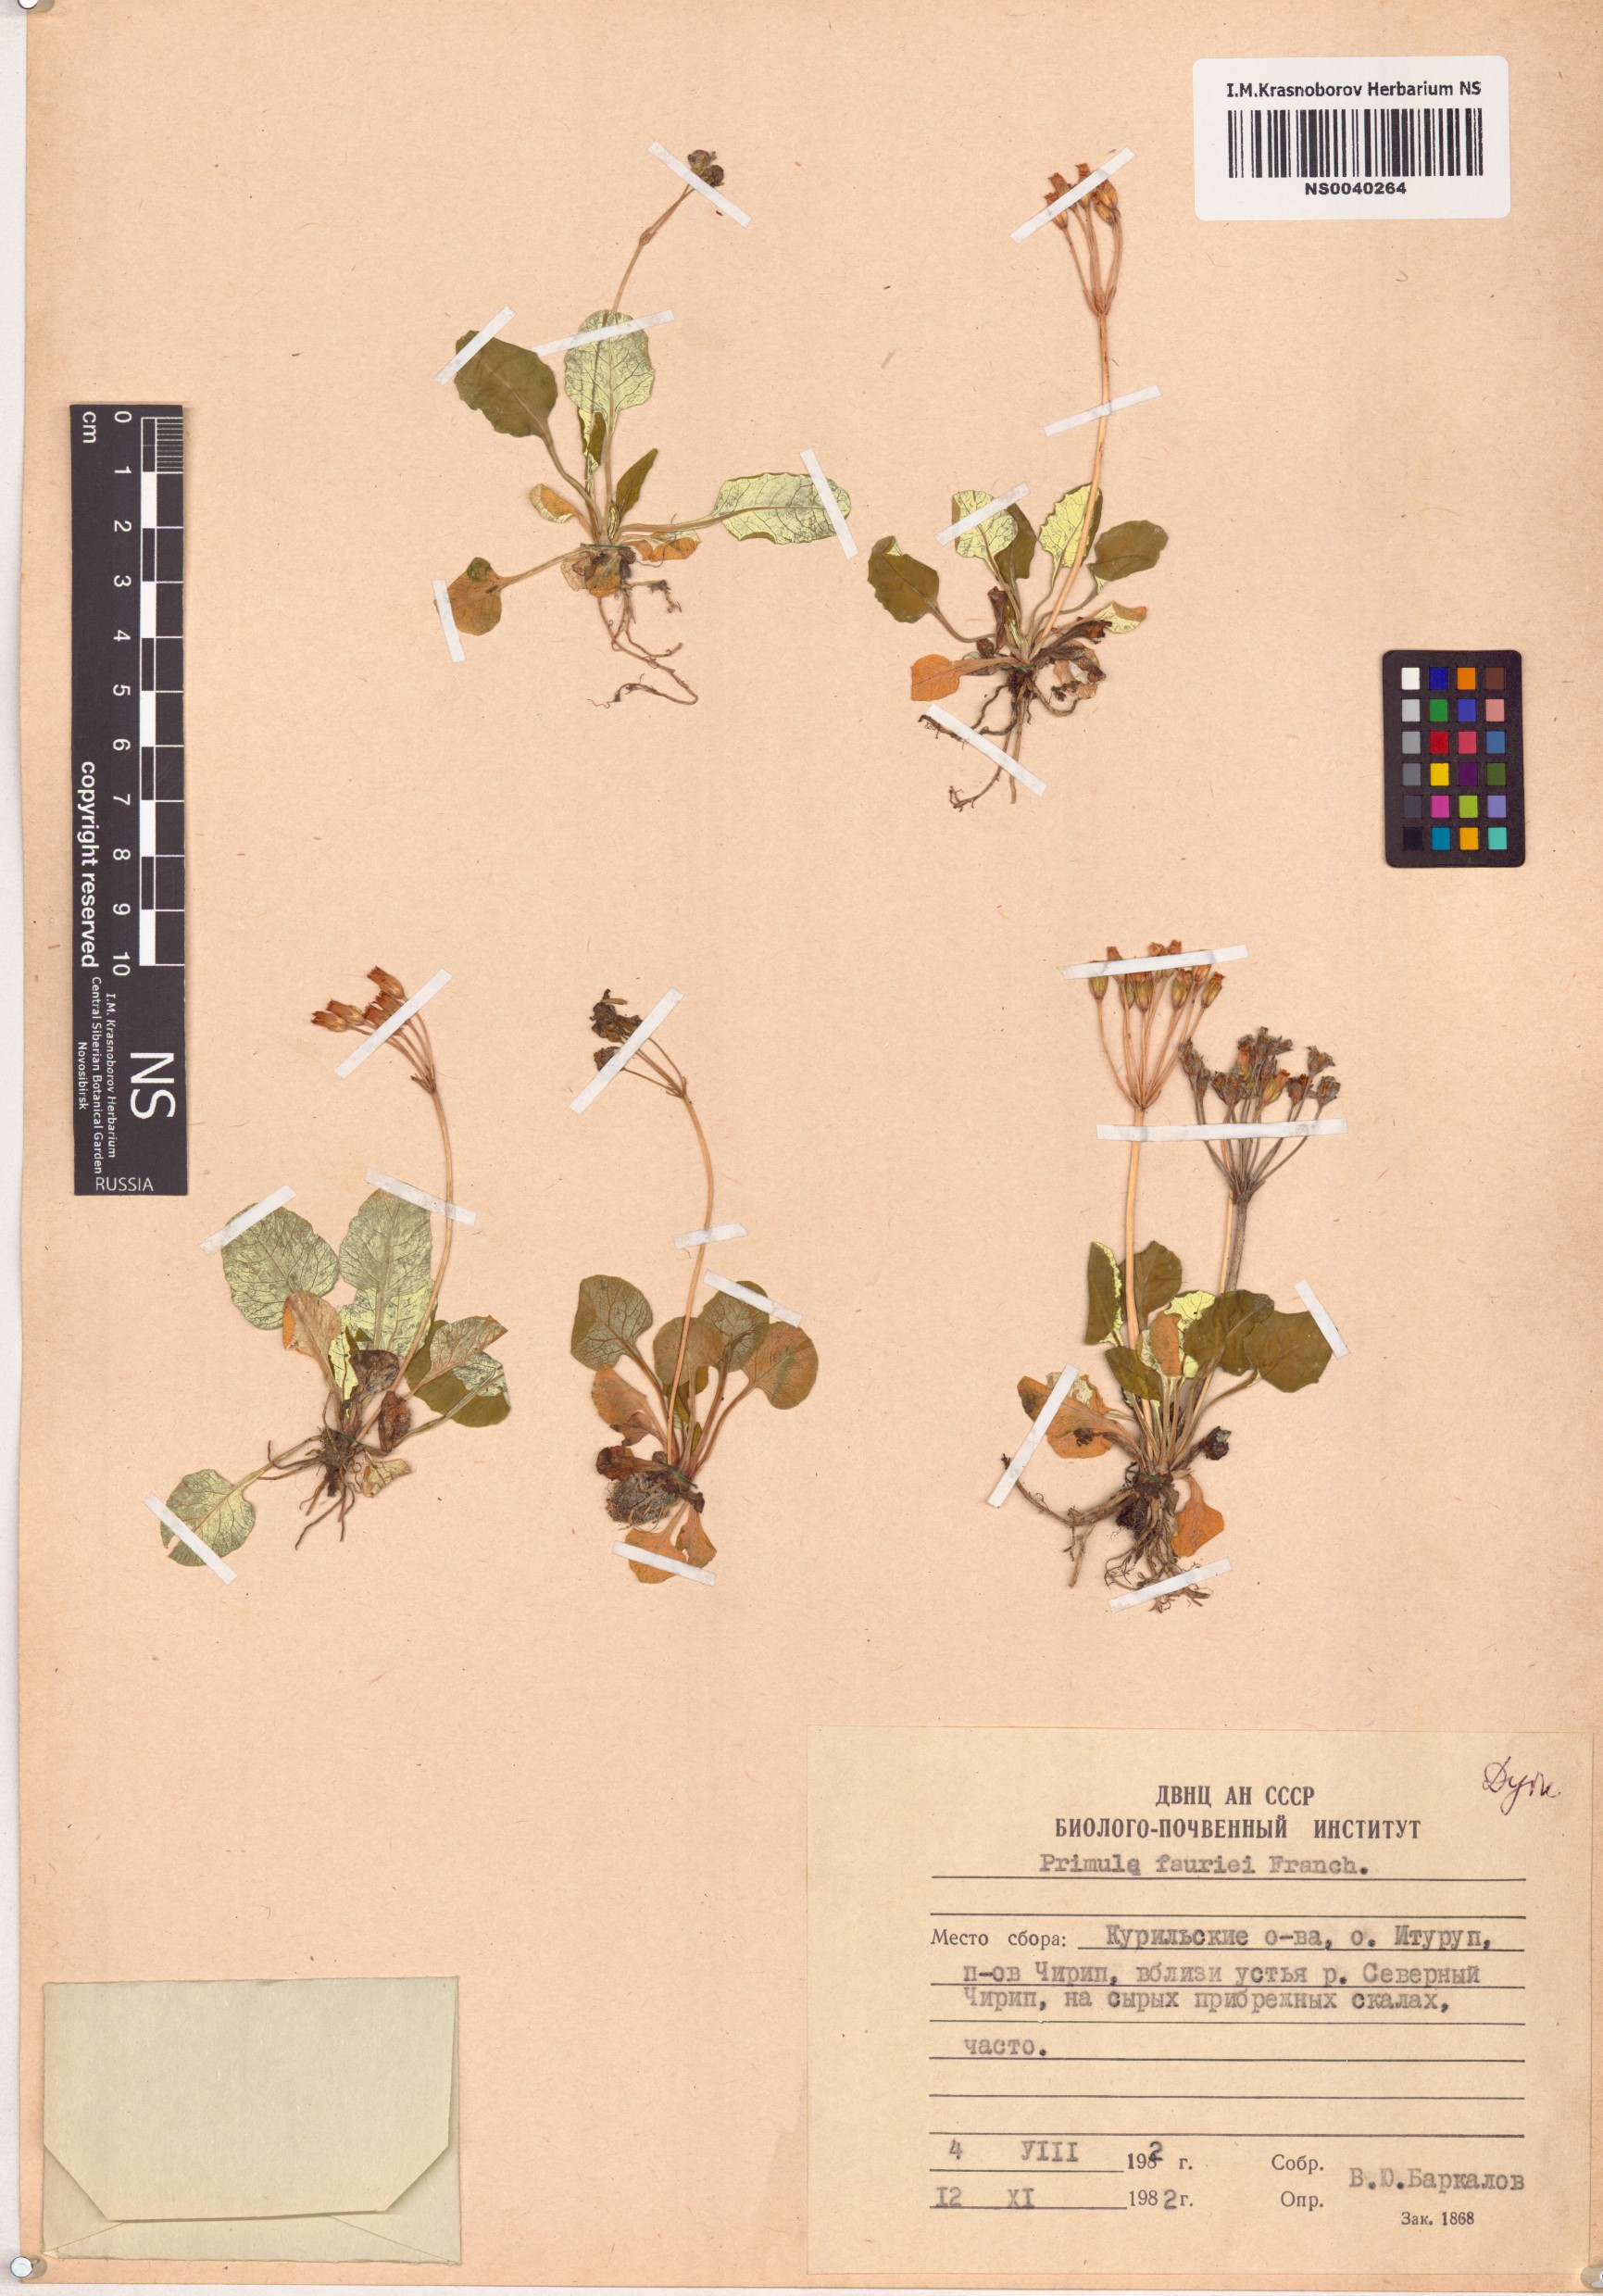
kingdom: Plantae
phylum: Tracheophyta
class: Magnoliopsida
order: Ericales
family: Primulaceae
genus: Primula
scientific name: Primula modesta
